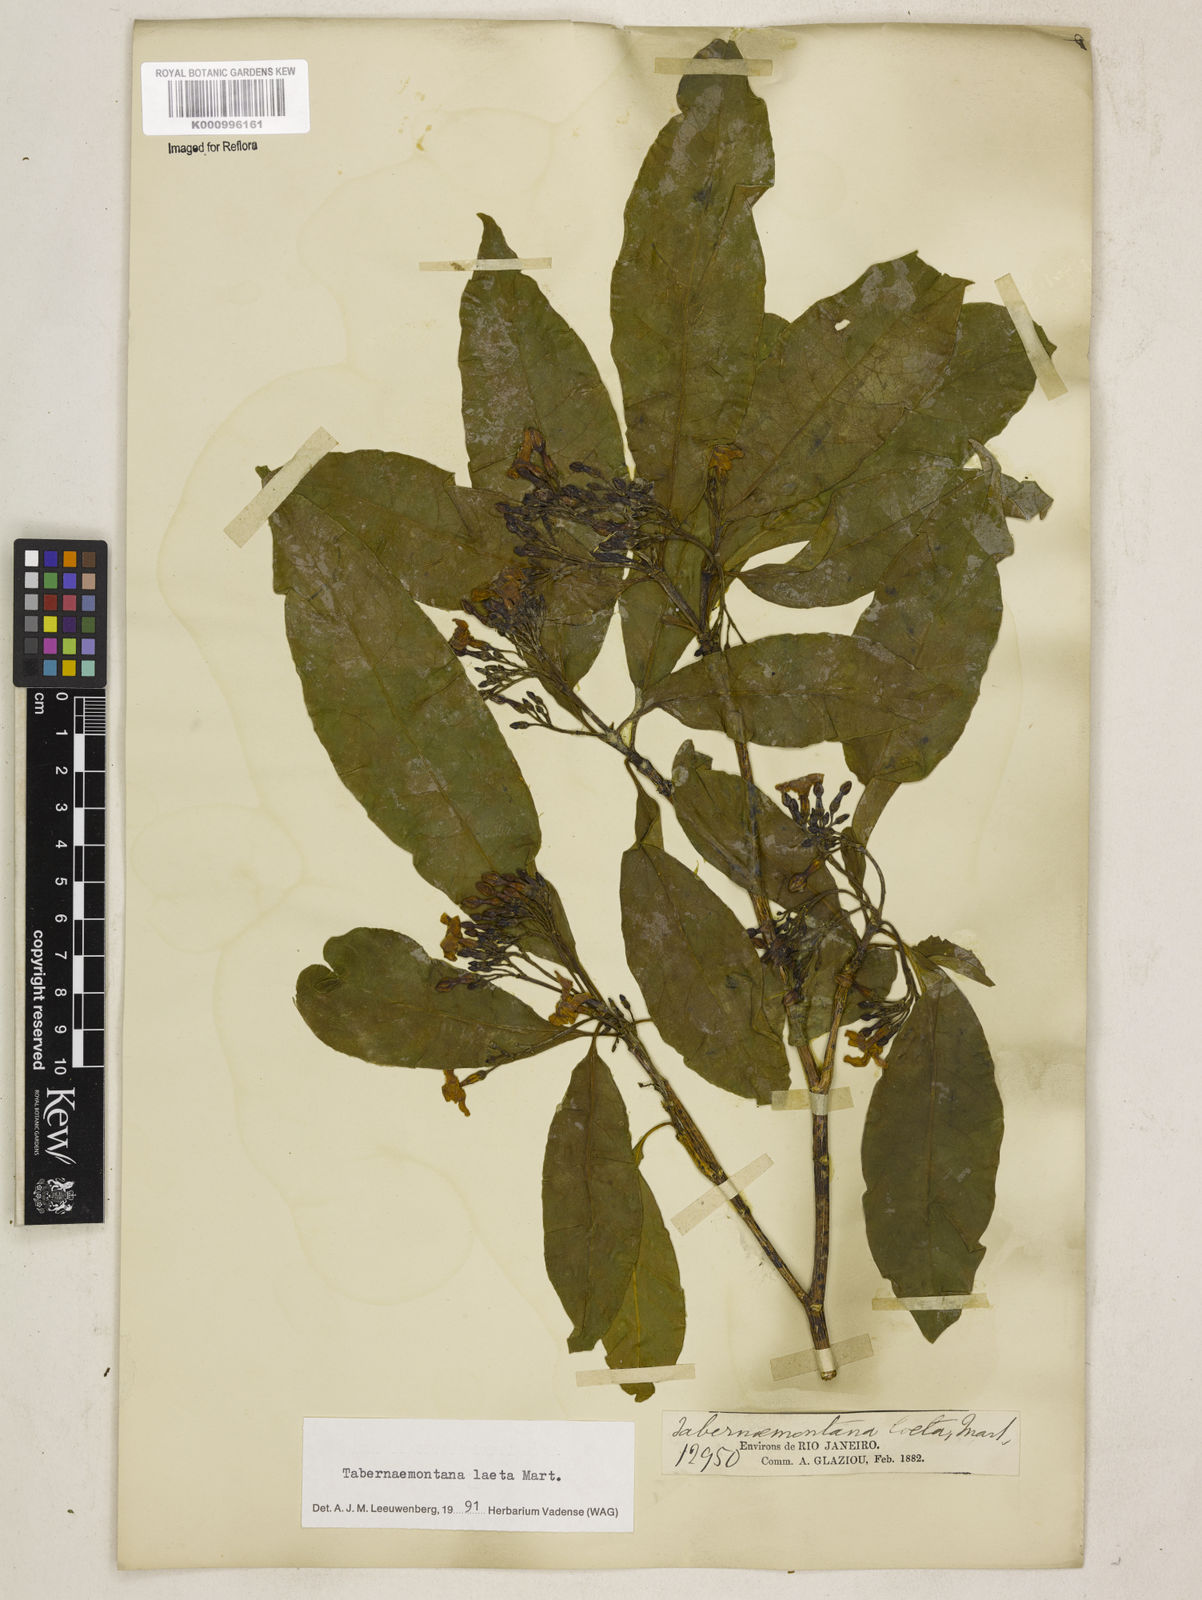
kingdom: Plantae
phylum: Tracheophyta
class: Magnoliopsida
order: Gentianales
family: Apocynaceae
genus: Tabernaemontana
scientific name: Tabernaemontana laeta
